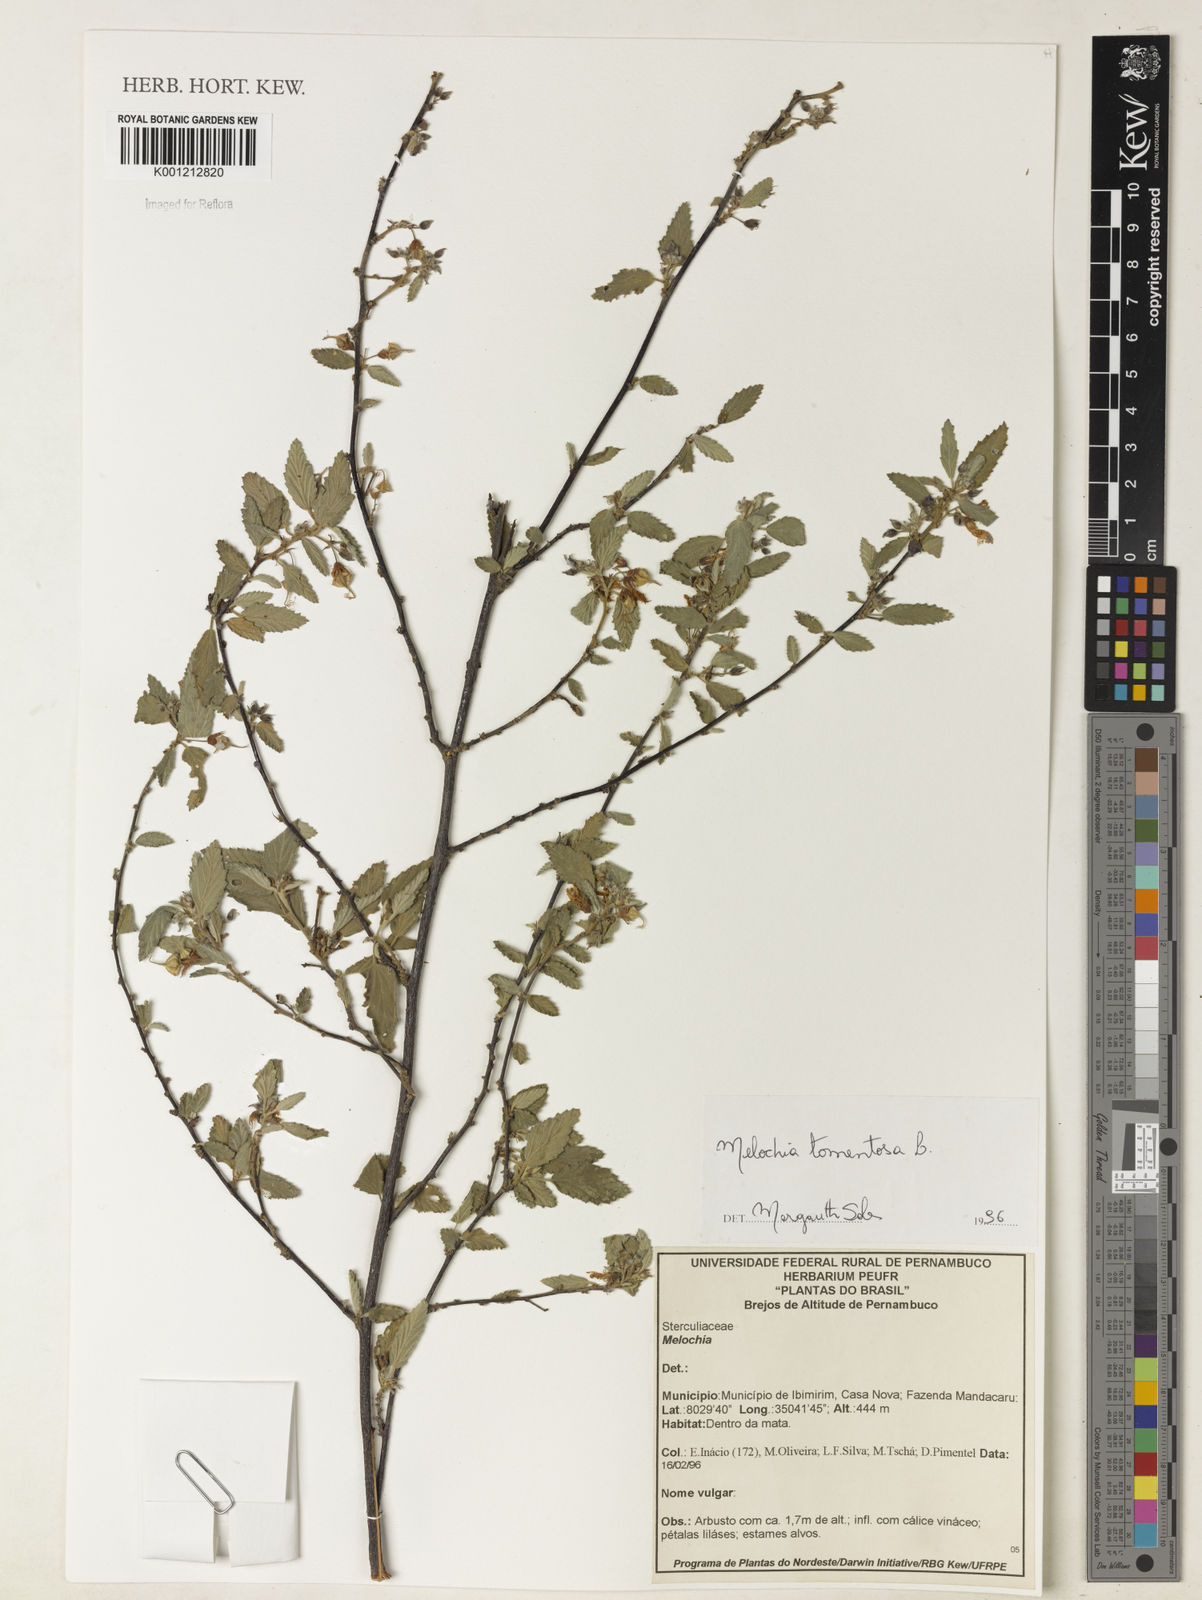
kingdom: Plantae
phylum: Tracheophyta
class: Magnoliopsida
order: Malvales
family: Malvaceae
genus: Melochia
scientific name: Melochia tomentosa
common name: Black torch
